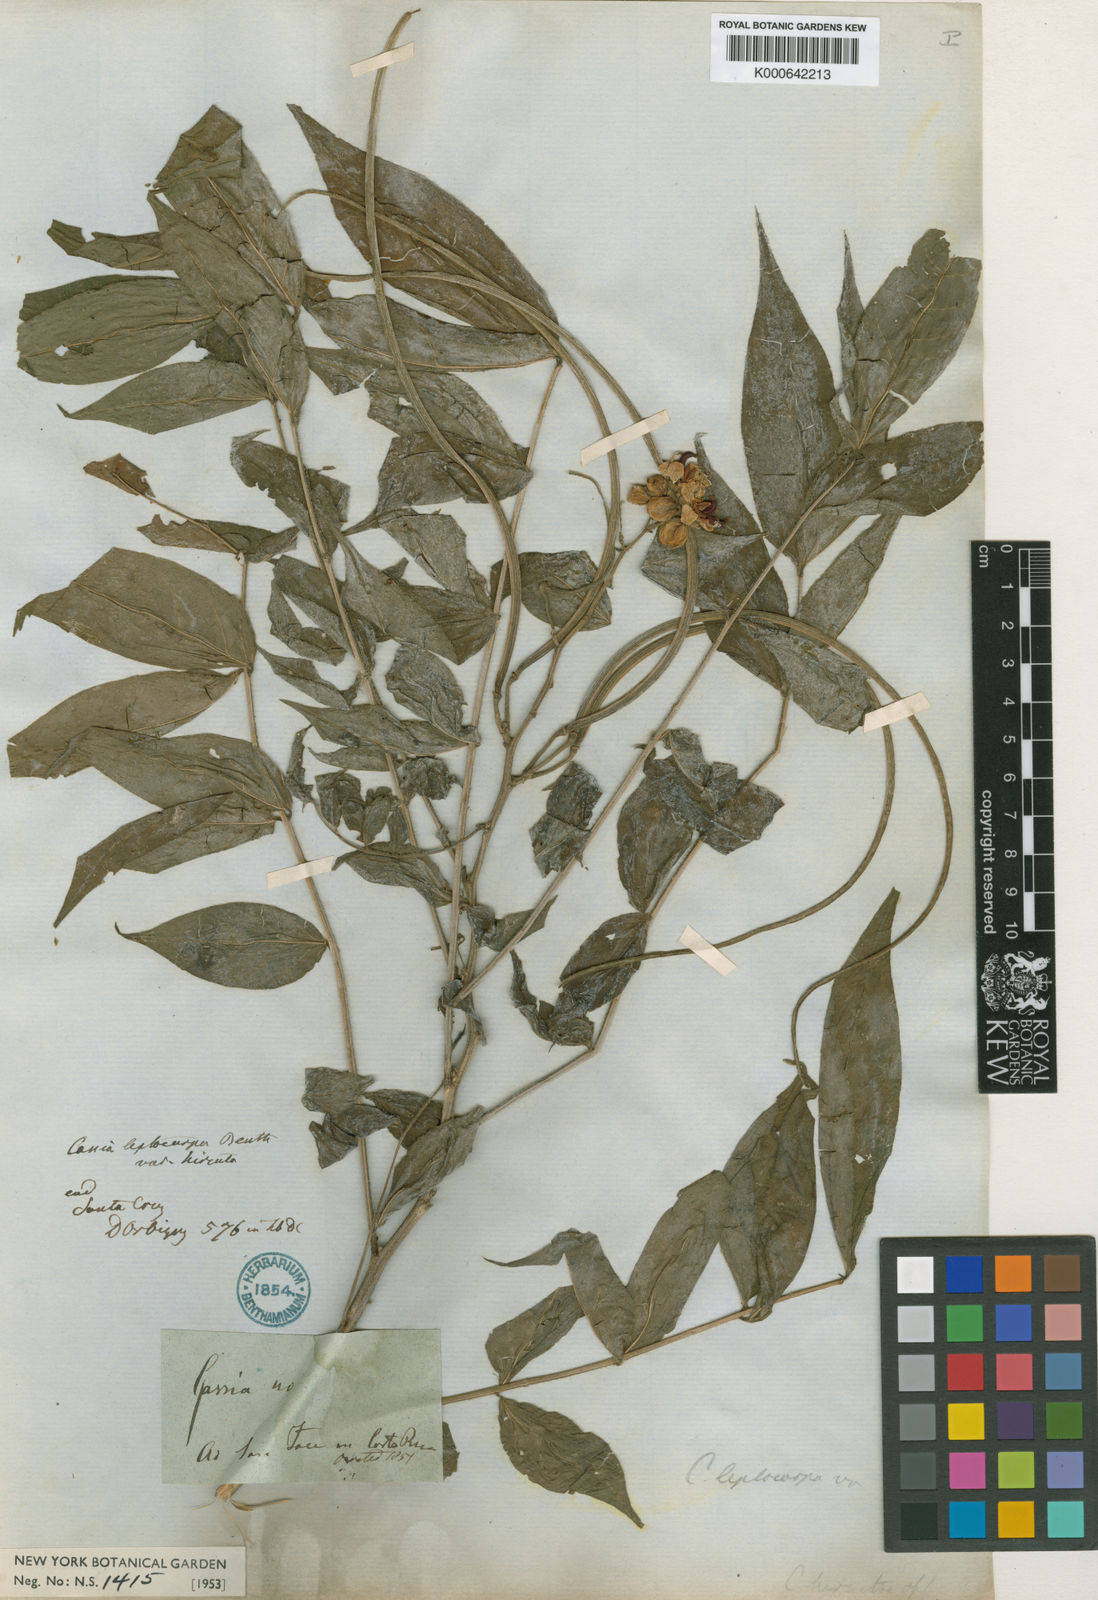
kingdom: Plantae
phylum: Tracheophyta
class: Magnoliopsida
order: Fabales
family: Fabaceae
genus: Senna
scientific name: Senna hirsuta
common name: Woolly senna
